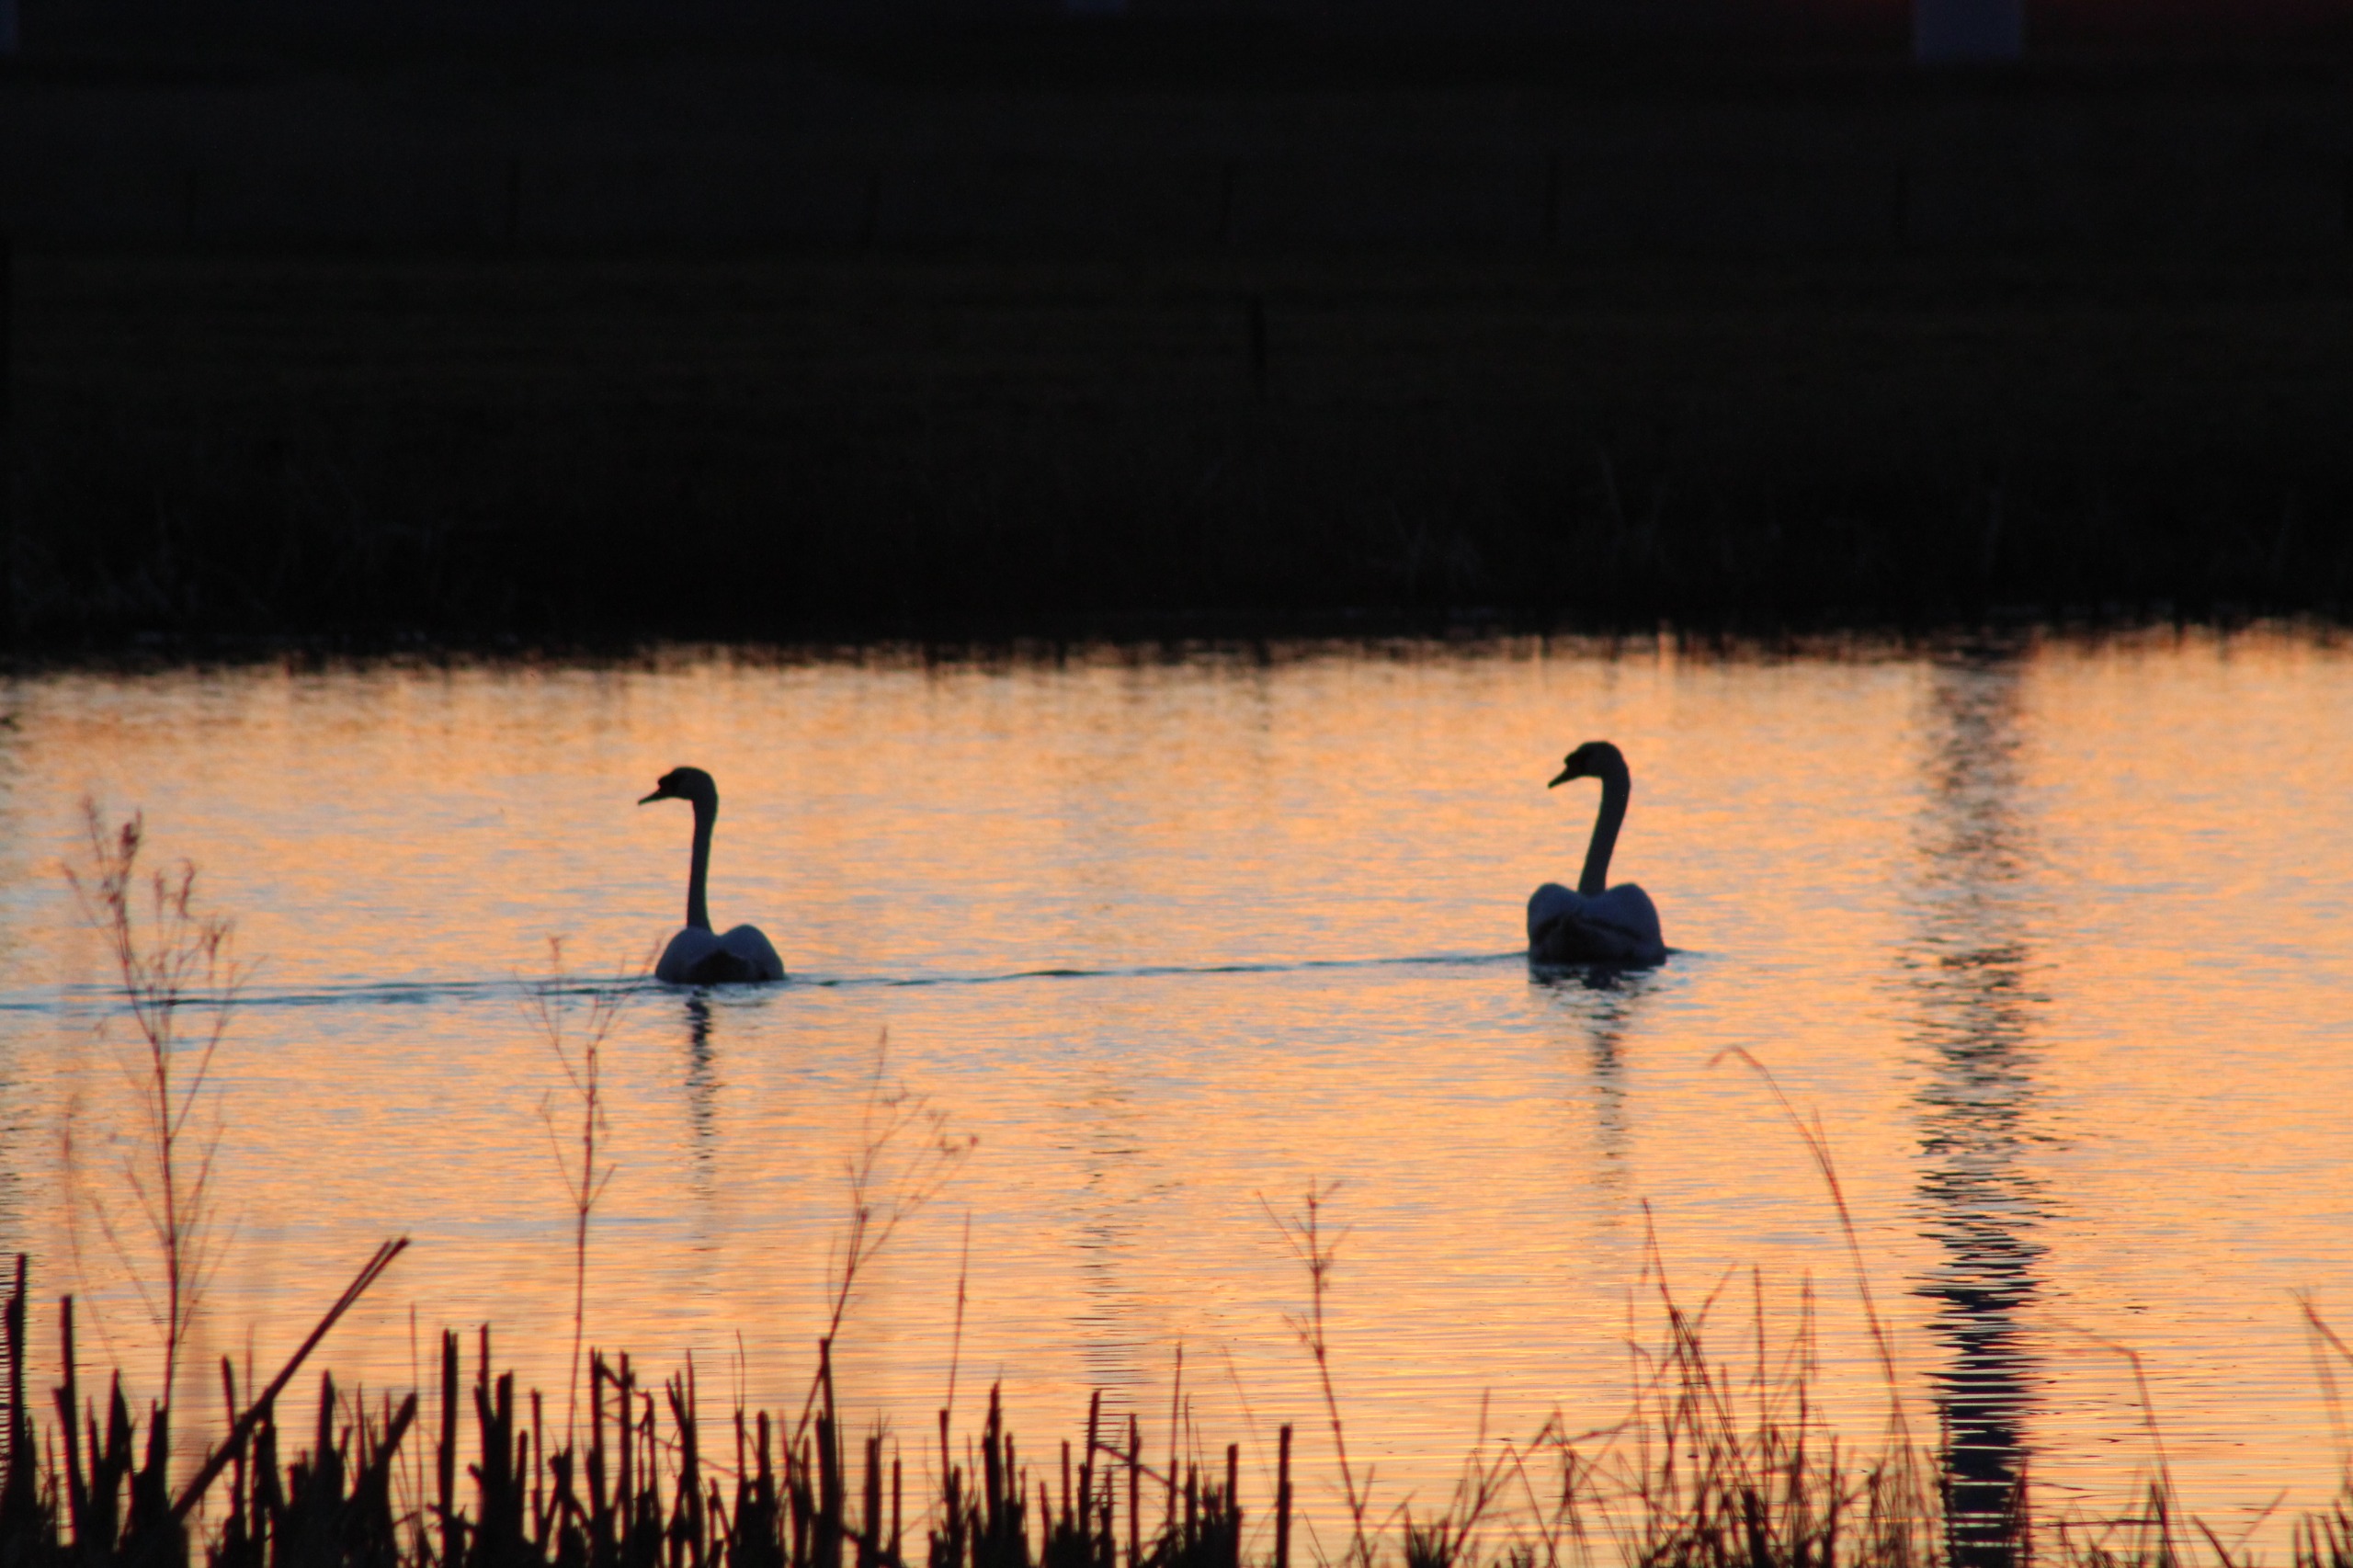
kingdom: Animalia
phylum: Chordata
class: Aves
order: Anseriformes
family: Anatidae
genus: Cygnus
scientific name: Cygnus olor
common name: Knopsvane
